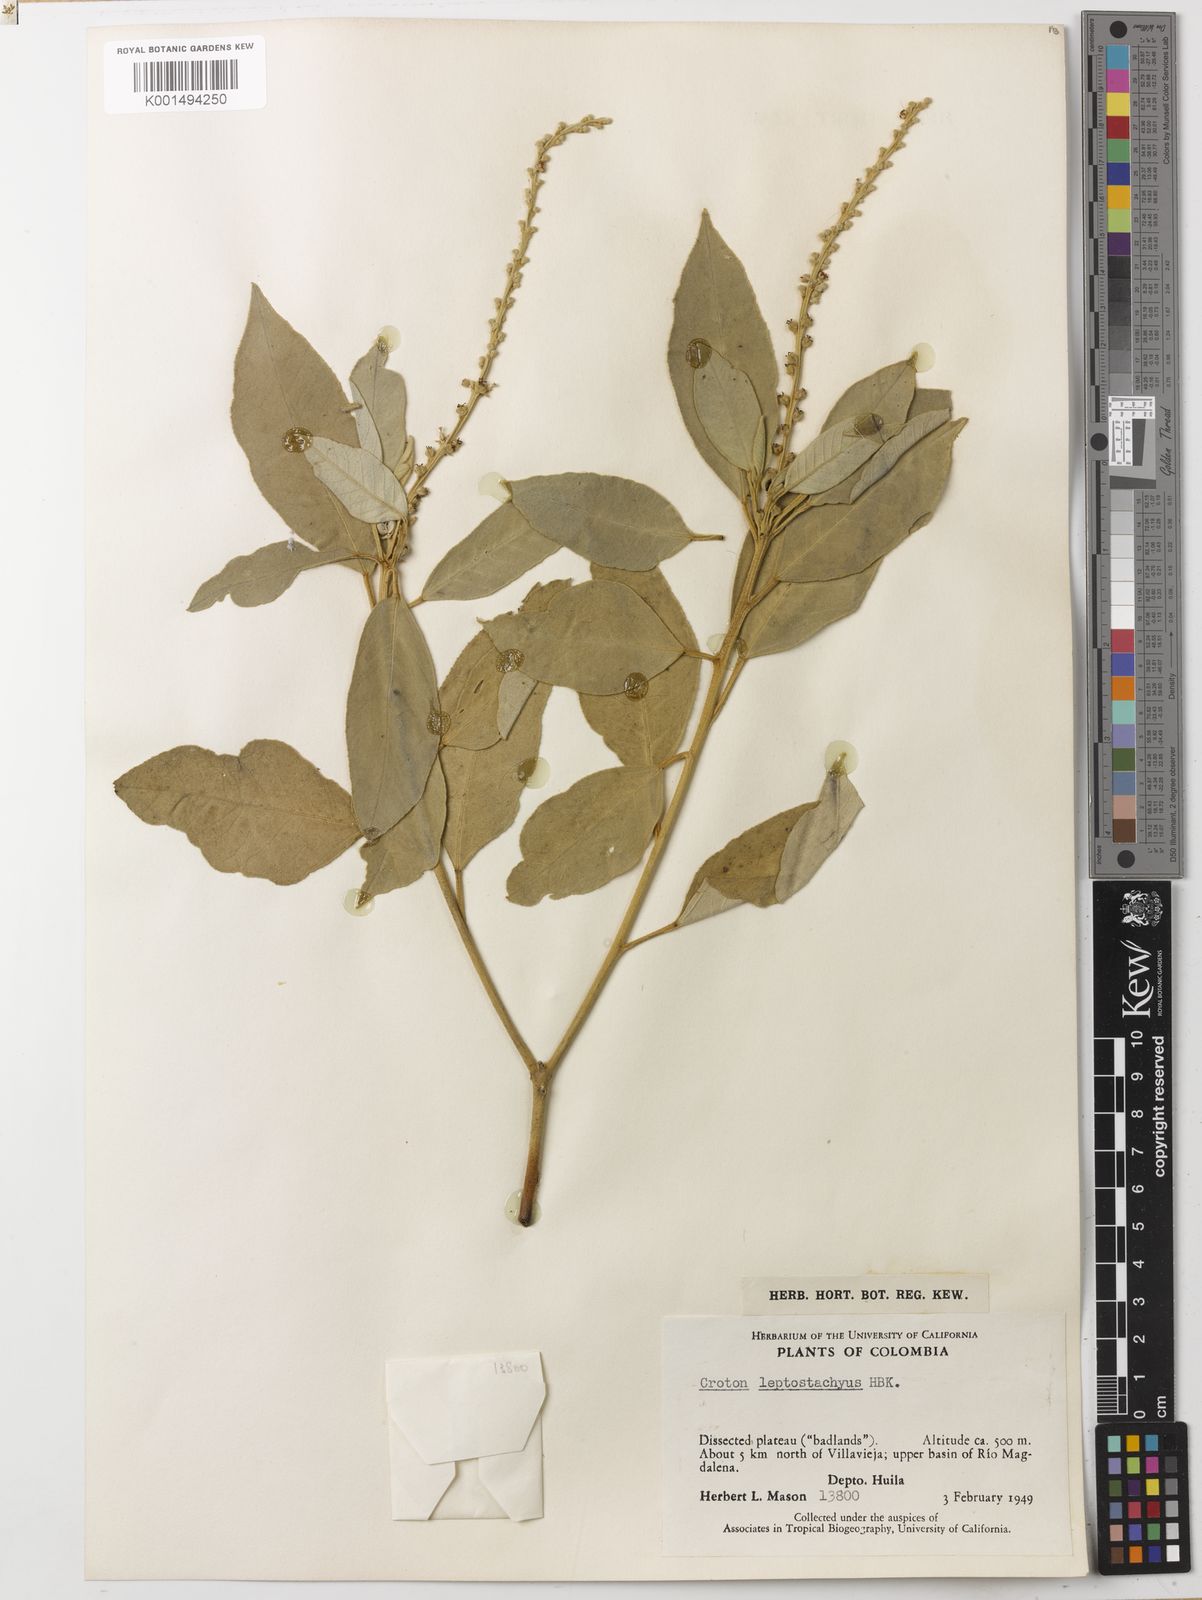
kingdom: Plantae
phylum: Tracheophyta
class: Magnoliopsida
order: Malpighiales
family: Euphorbiaceae
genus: Croton
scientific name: Croton leptostachyus
